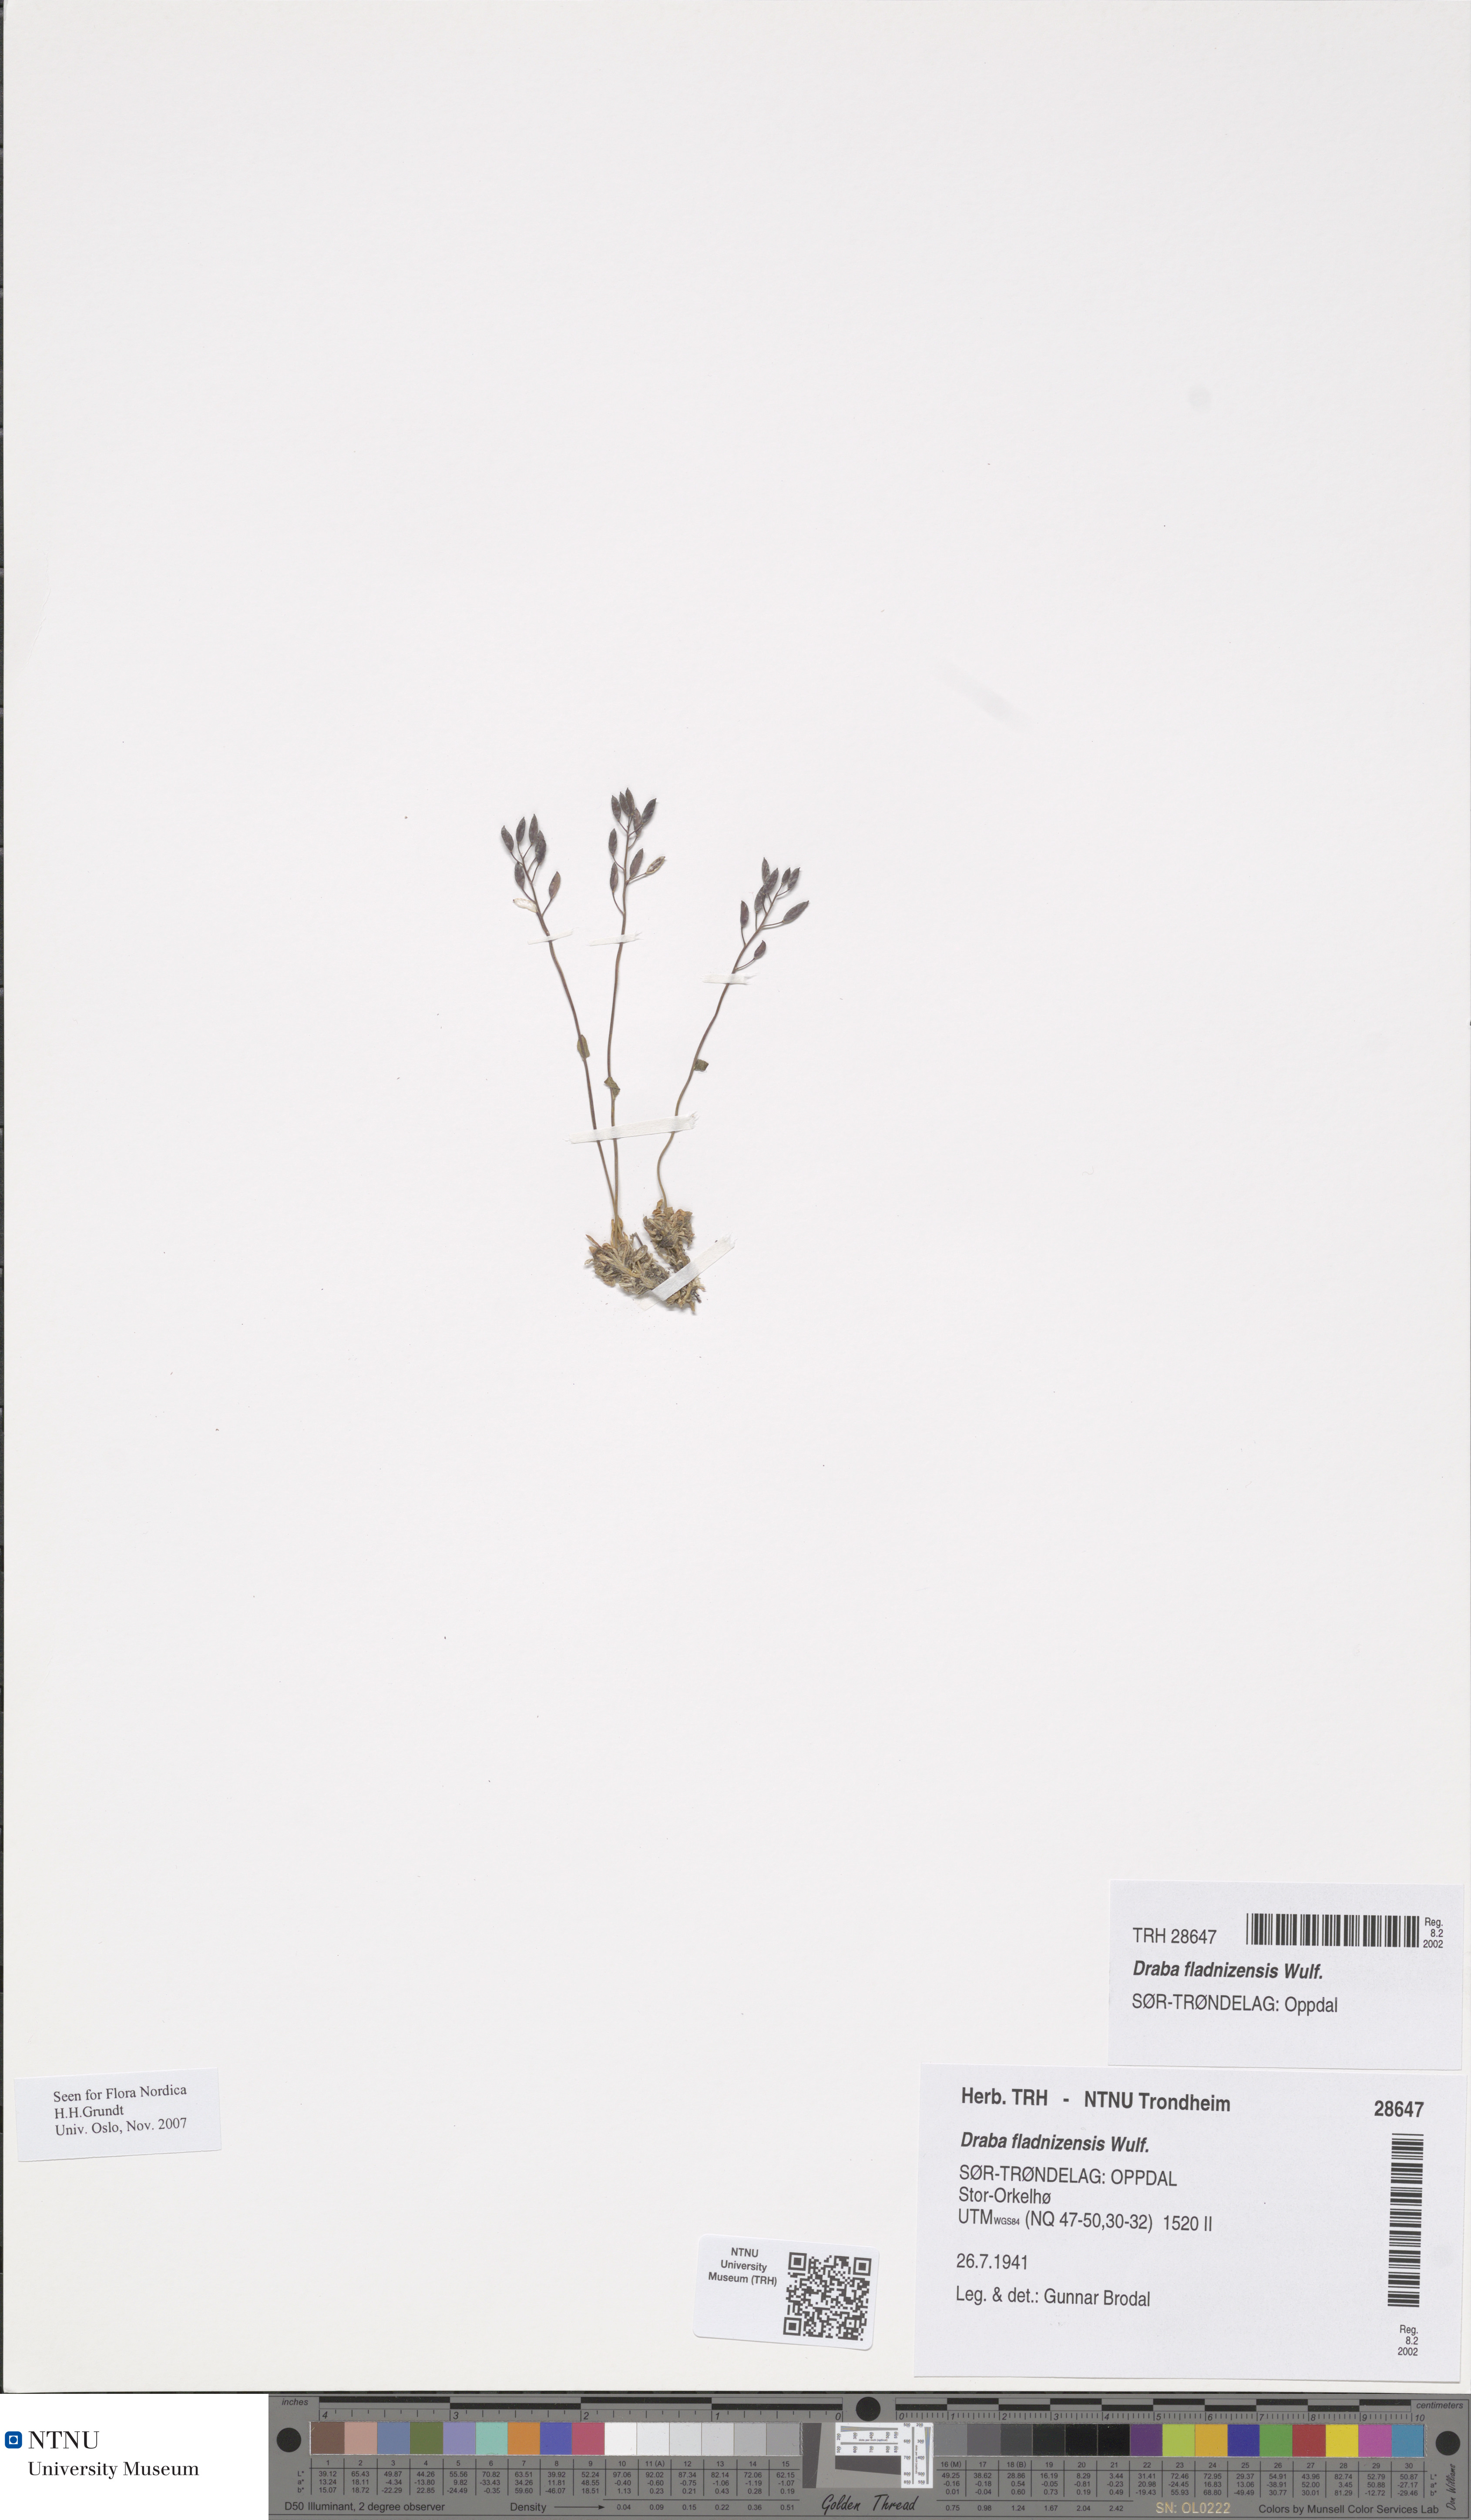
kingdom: Plantae
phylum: Tracheophyta
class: Magnoliopsida
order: Brassicales
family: Brassicaceae
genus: Draba
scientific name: Draba fladnizensis
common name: Austrian draba
